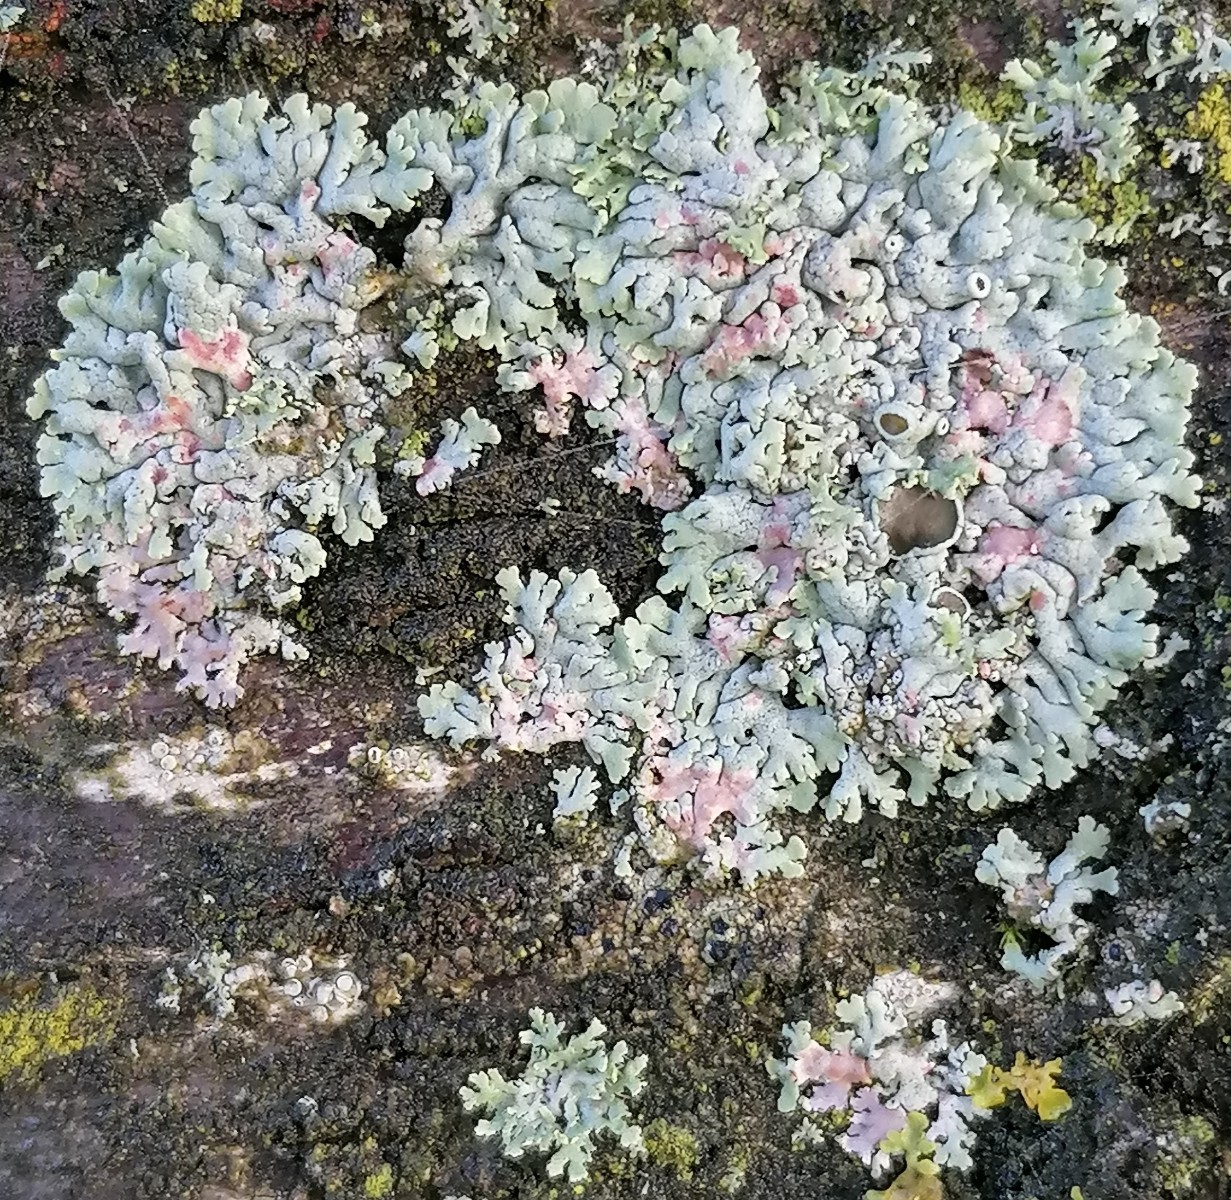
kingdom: Fungi
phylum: Ascomycota
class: Lecanoromycetes
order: Caliciales
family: Physciaceae
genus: Physcia
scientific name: Physcia aipolia
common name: hvidprikket rosetlav
